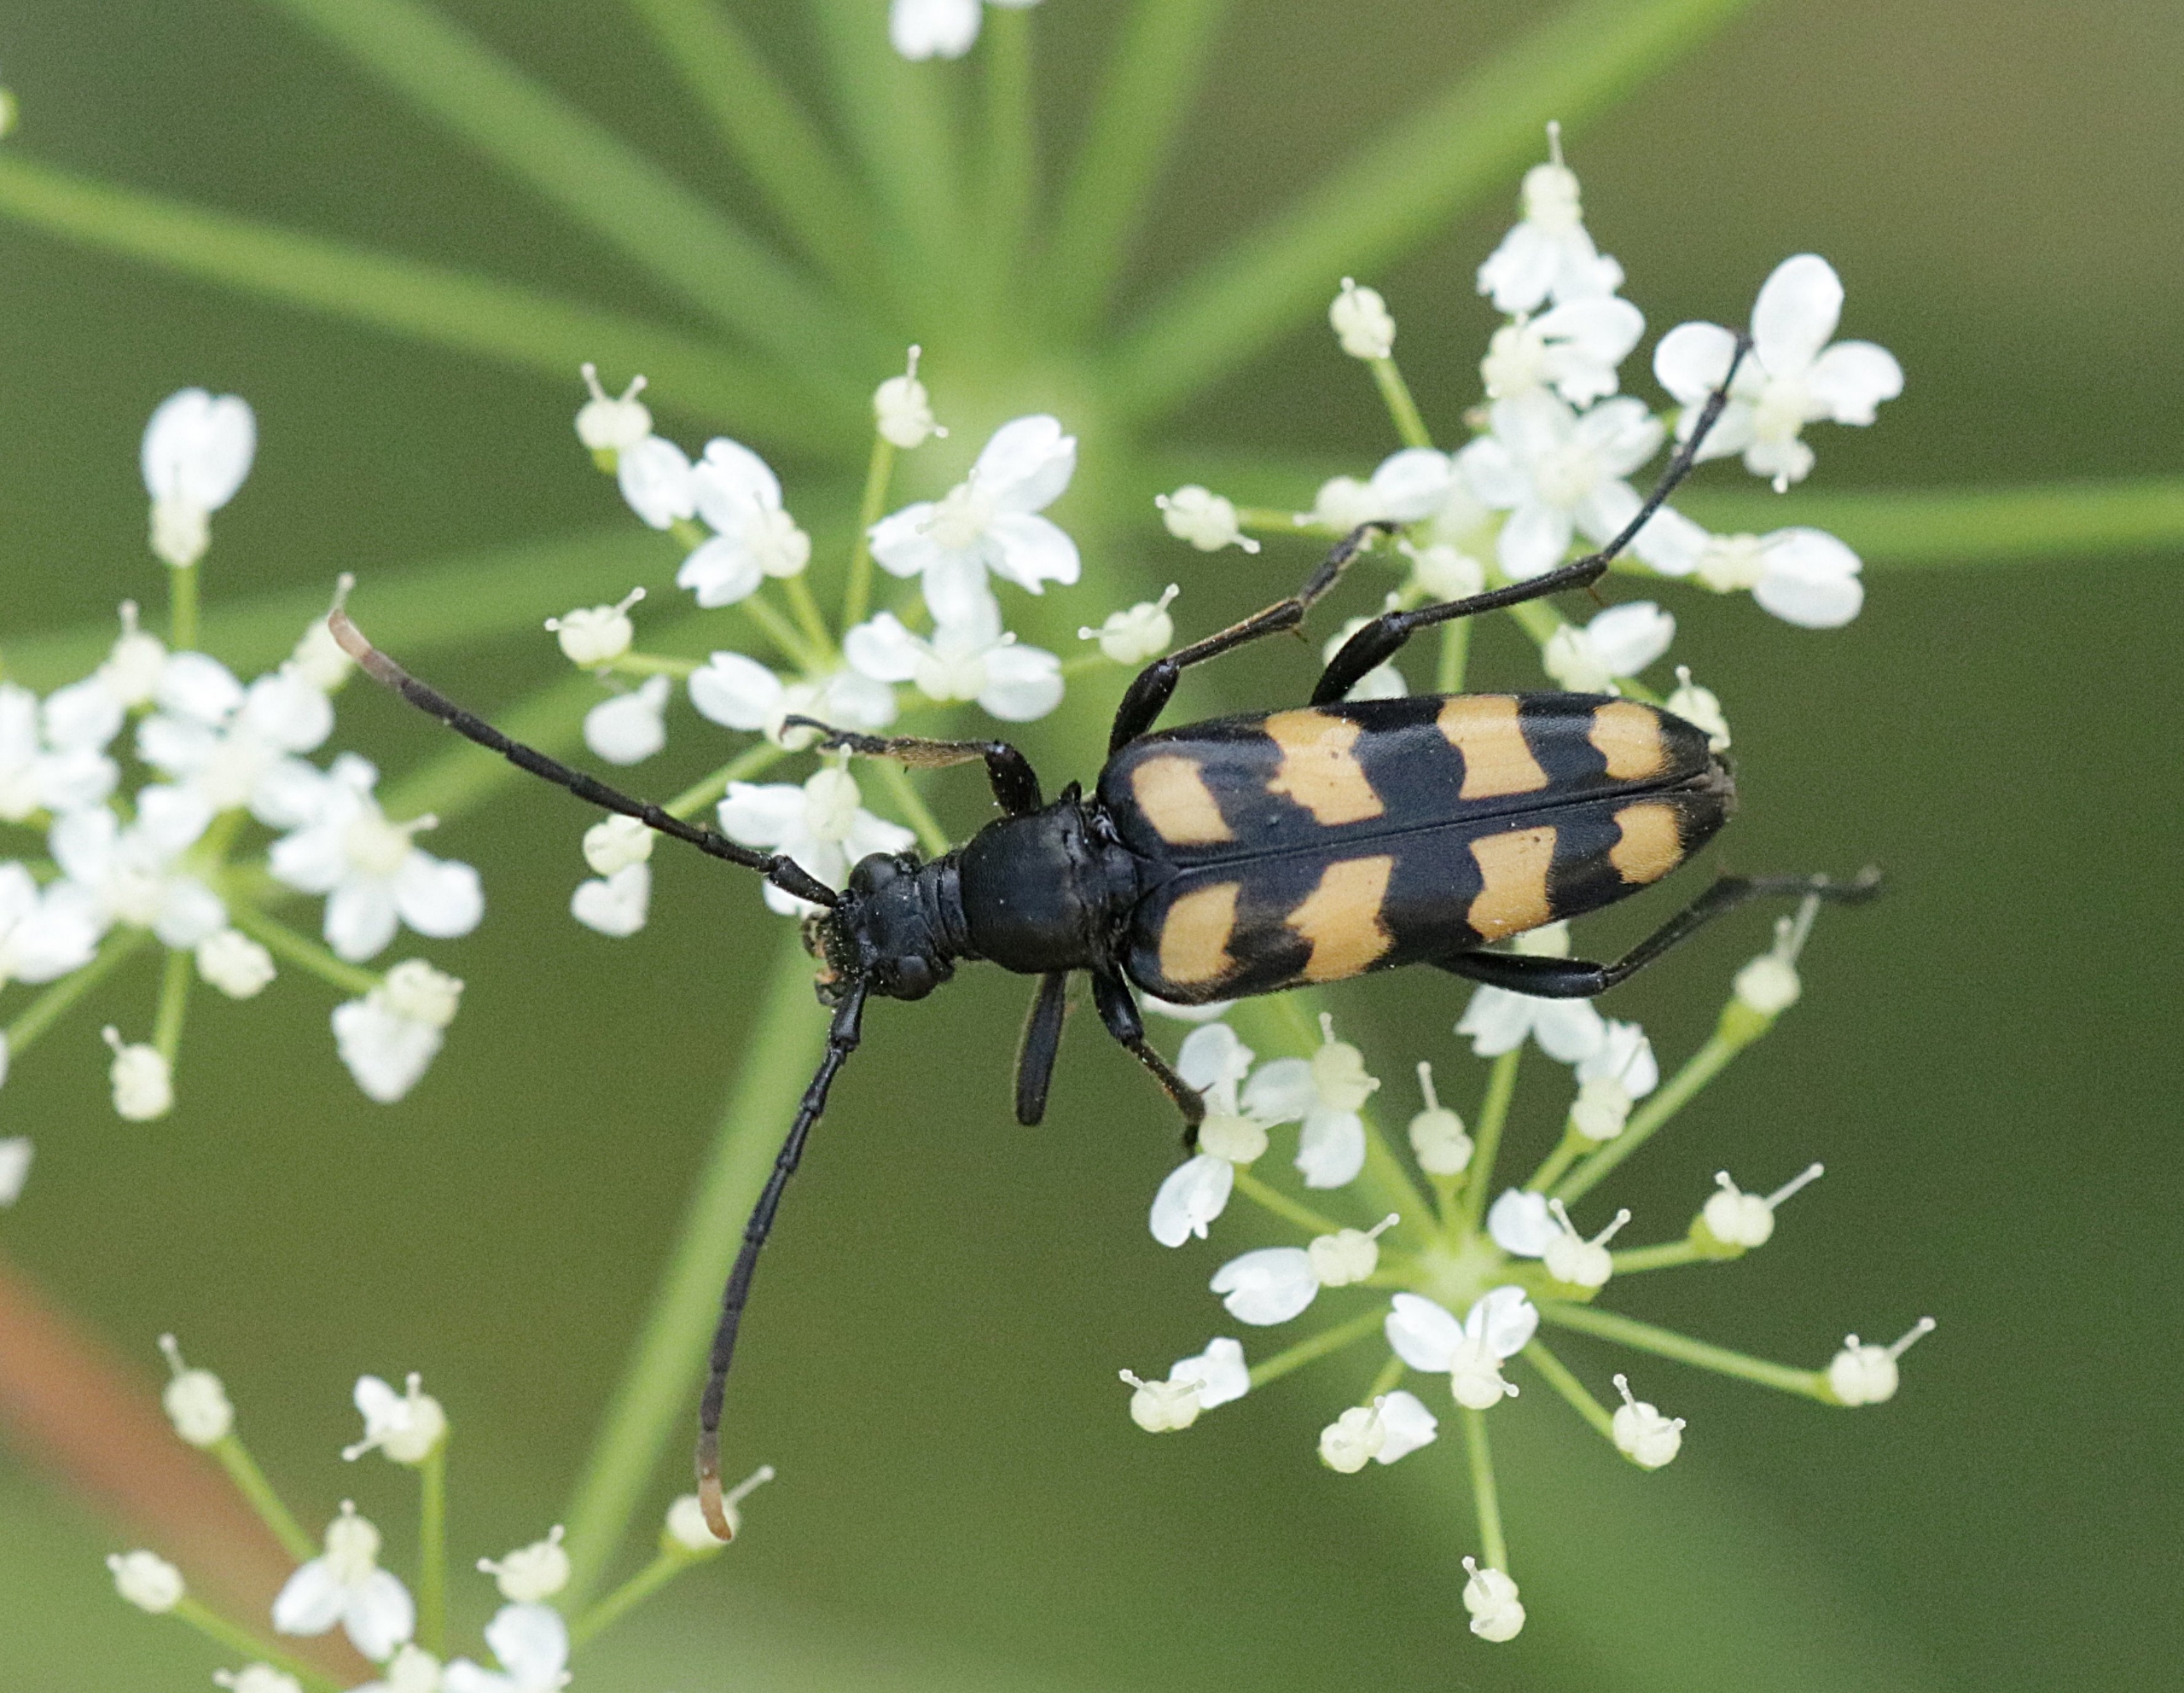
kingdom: Animalia
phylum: Arthropoda
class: Insecta
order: Coleoptera
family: Cerambycidae
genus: Leptura
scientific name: Leptura quadrifasciata
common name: Firebåndet blomsterbuk
